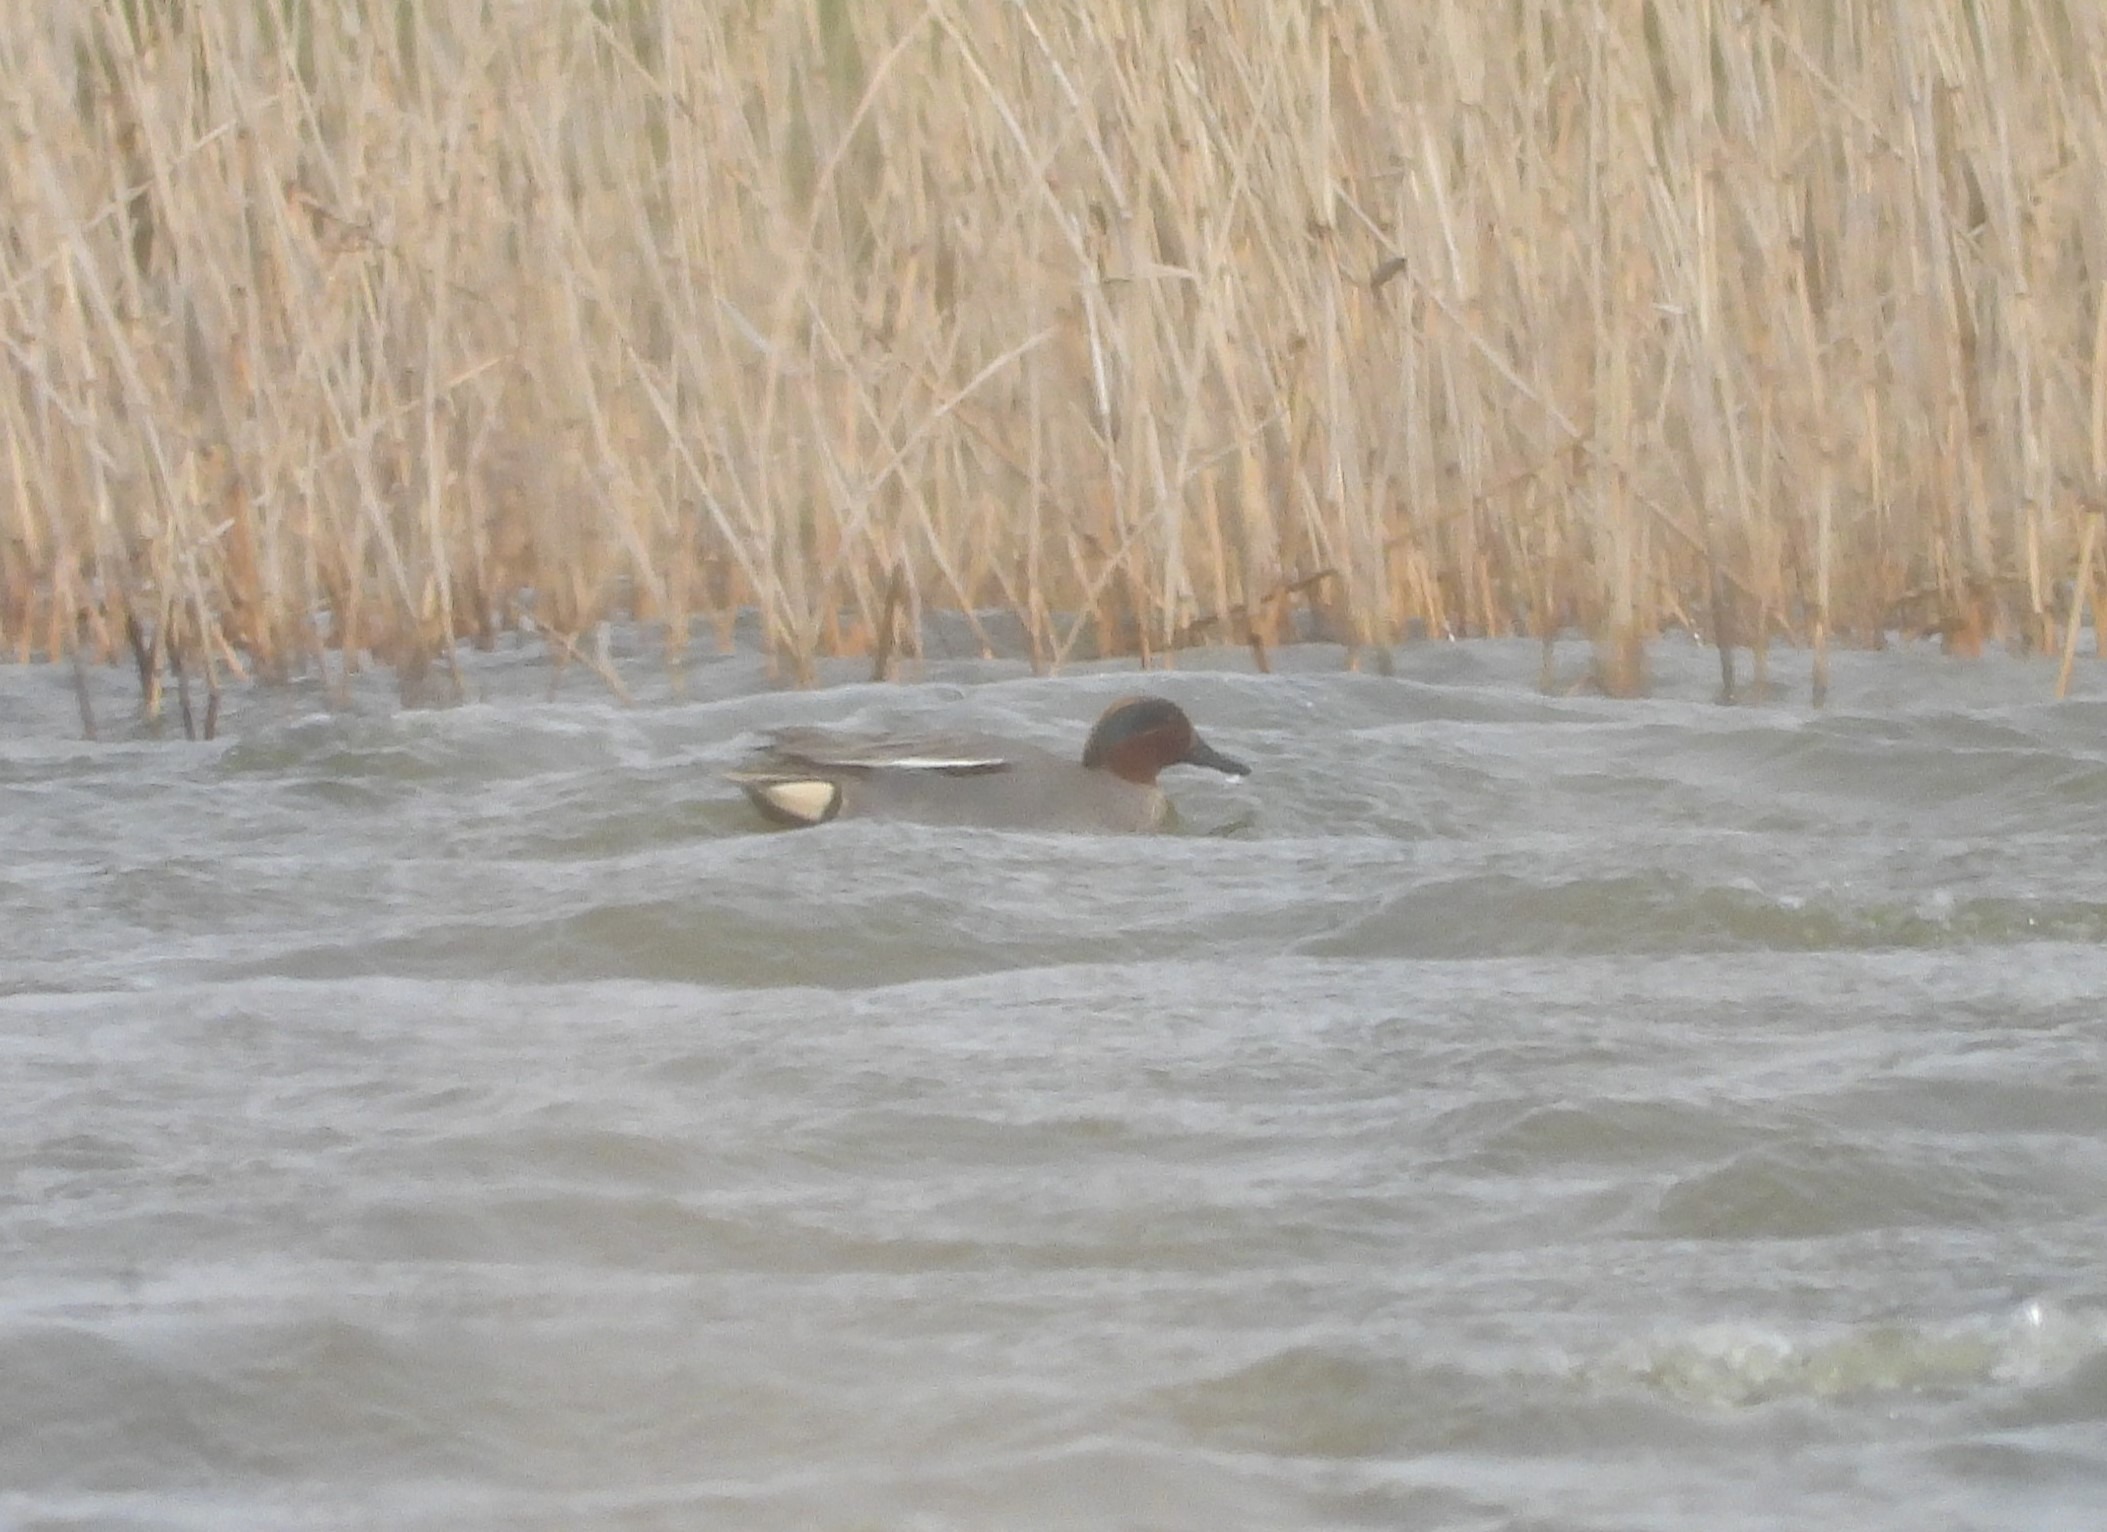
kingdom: Animalia
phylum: Chordata
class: Aves
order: Anseriformes
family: Anatidae
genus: Anas
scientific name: Anas crecca
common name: Krikand
